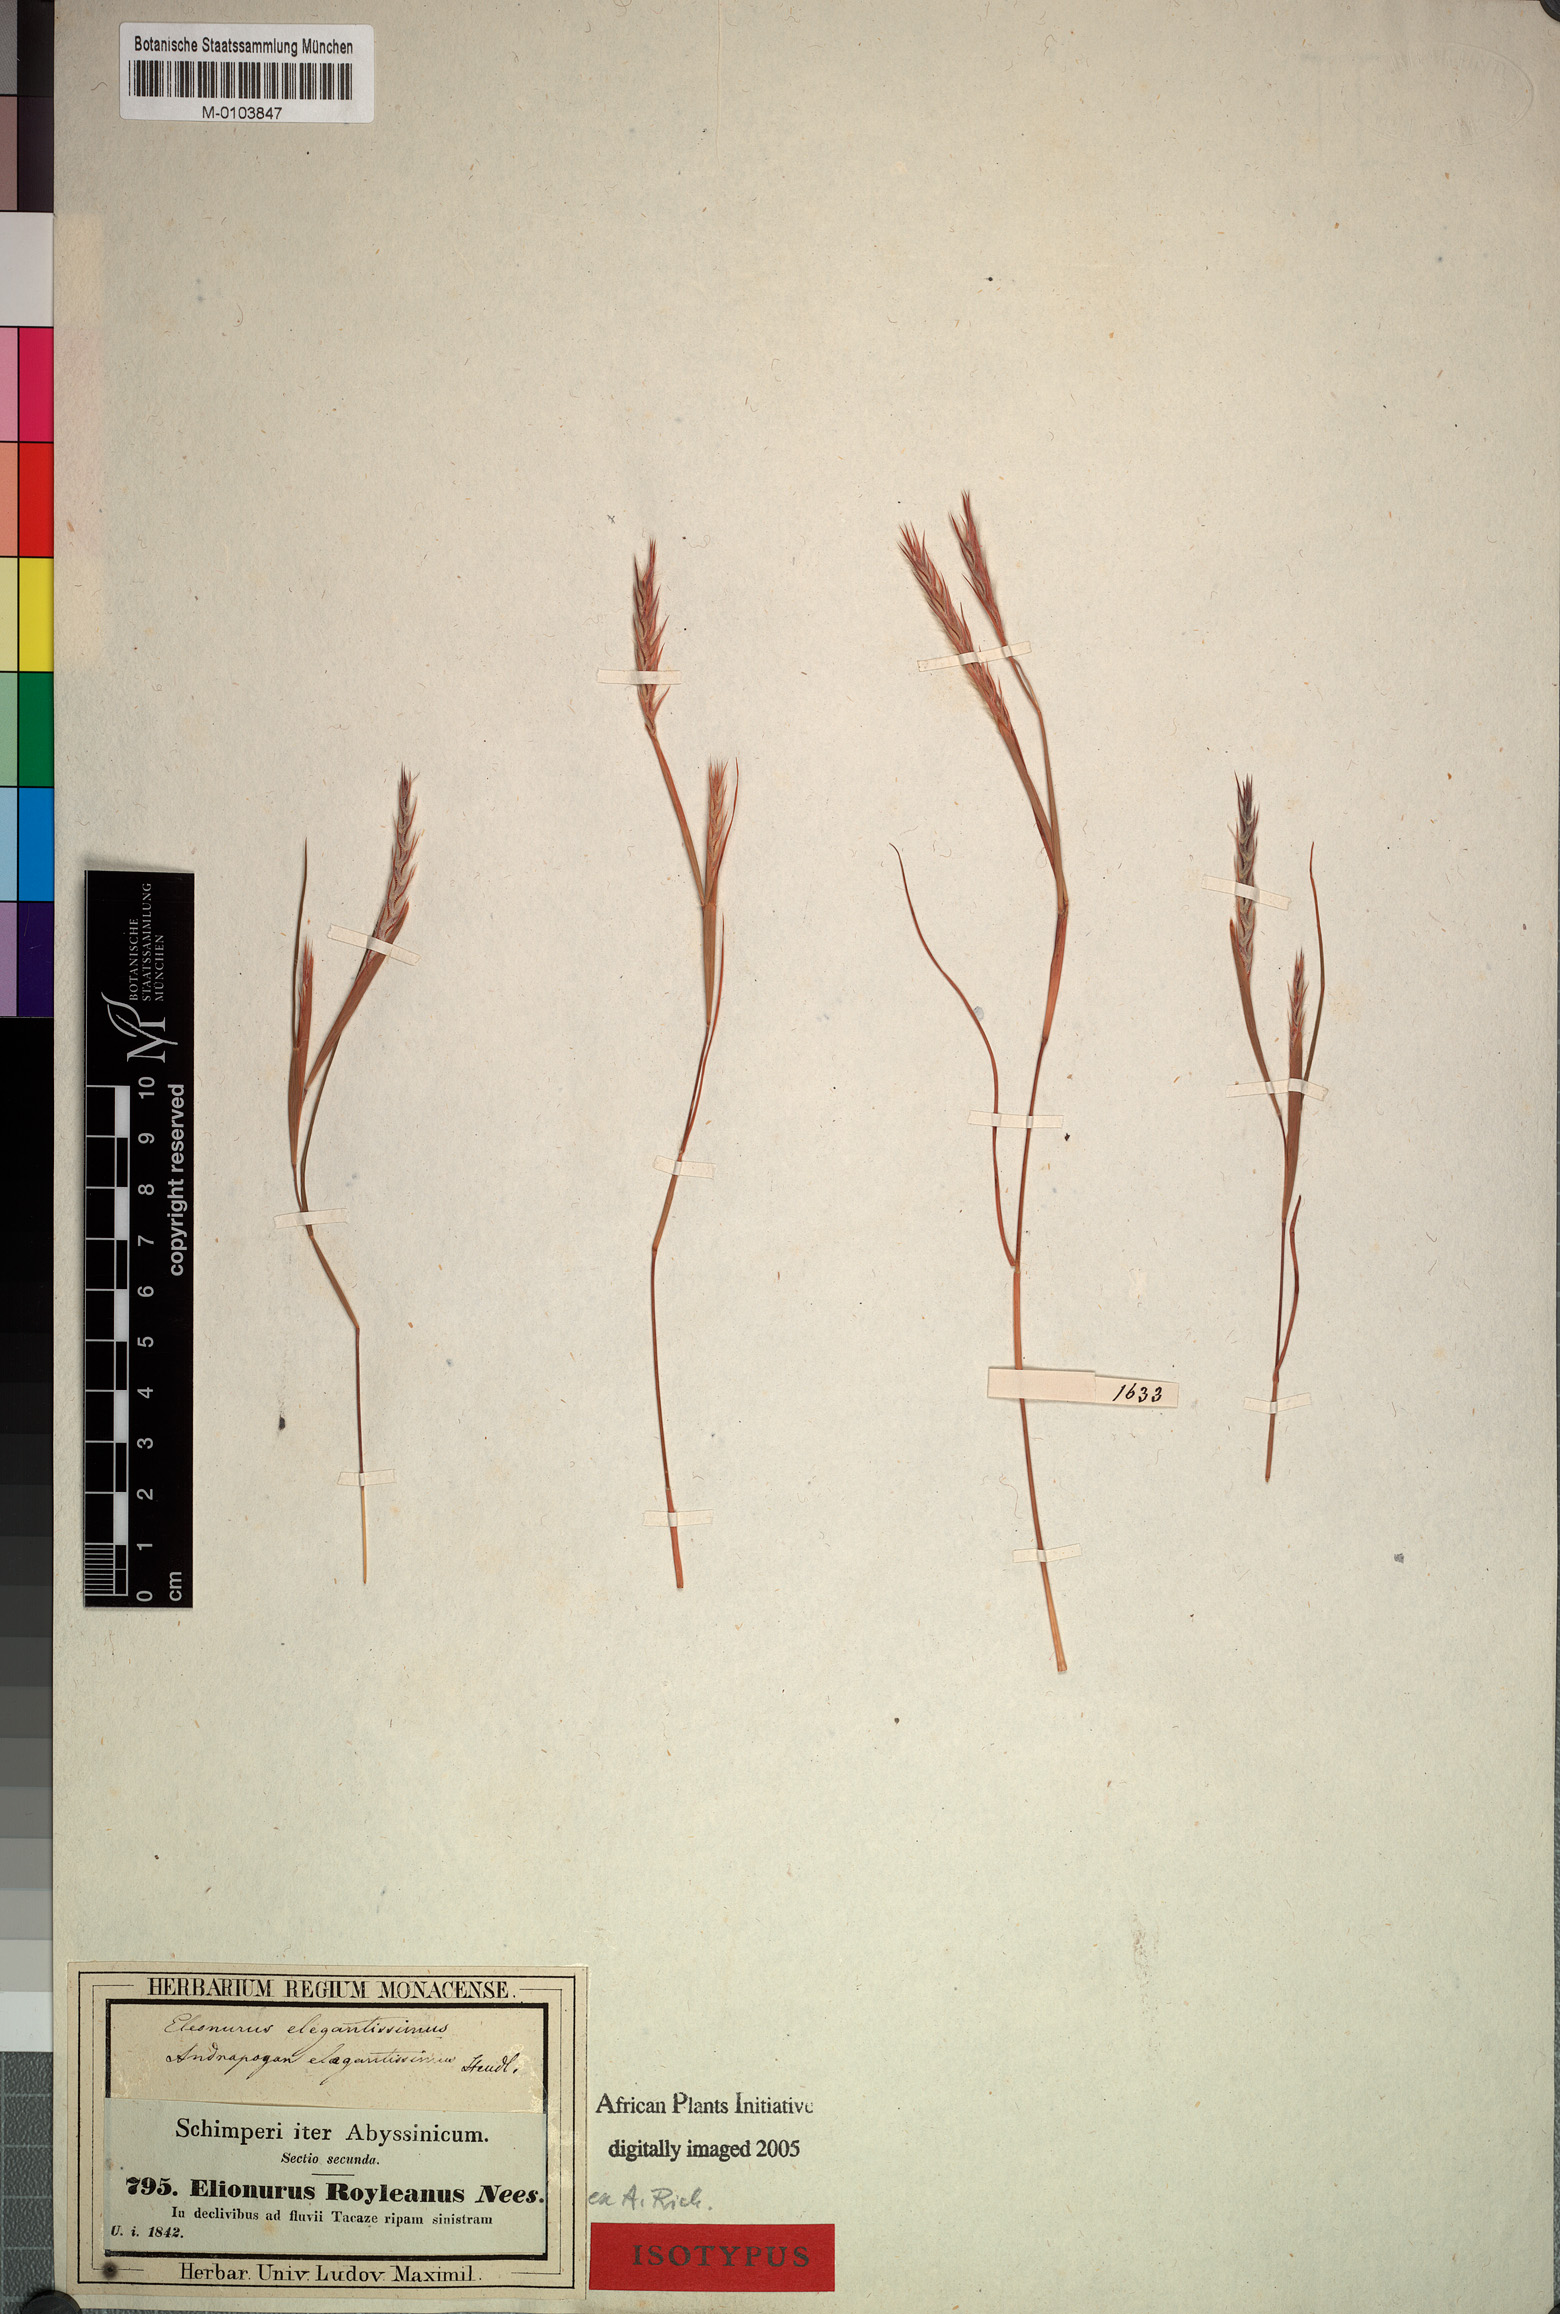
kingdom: Plantae
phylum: Tracheophyta
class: Liliopsida
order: Poales
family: Poaceae
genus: Elionurus
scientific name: Elionurus royleanus
